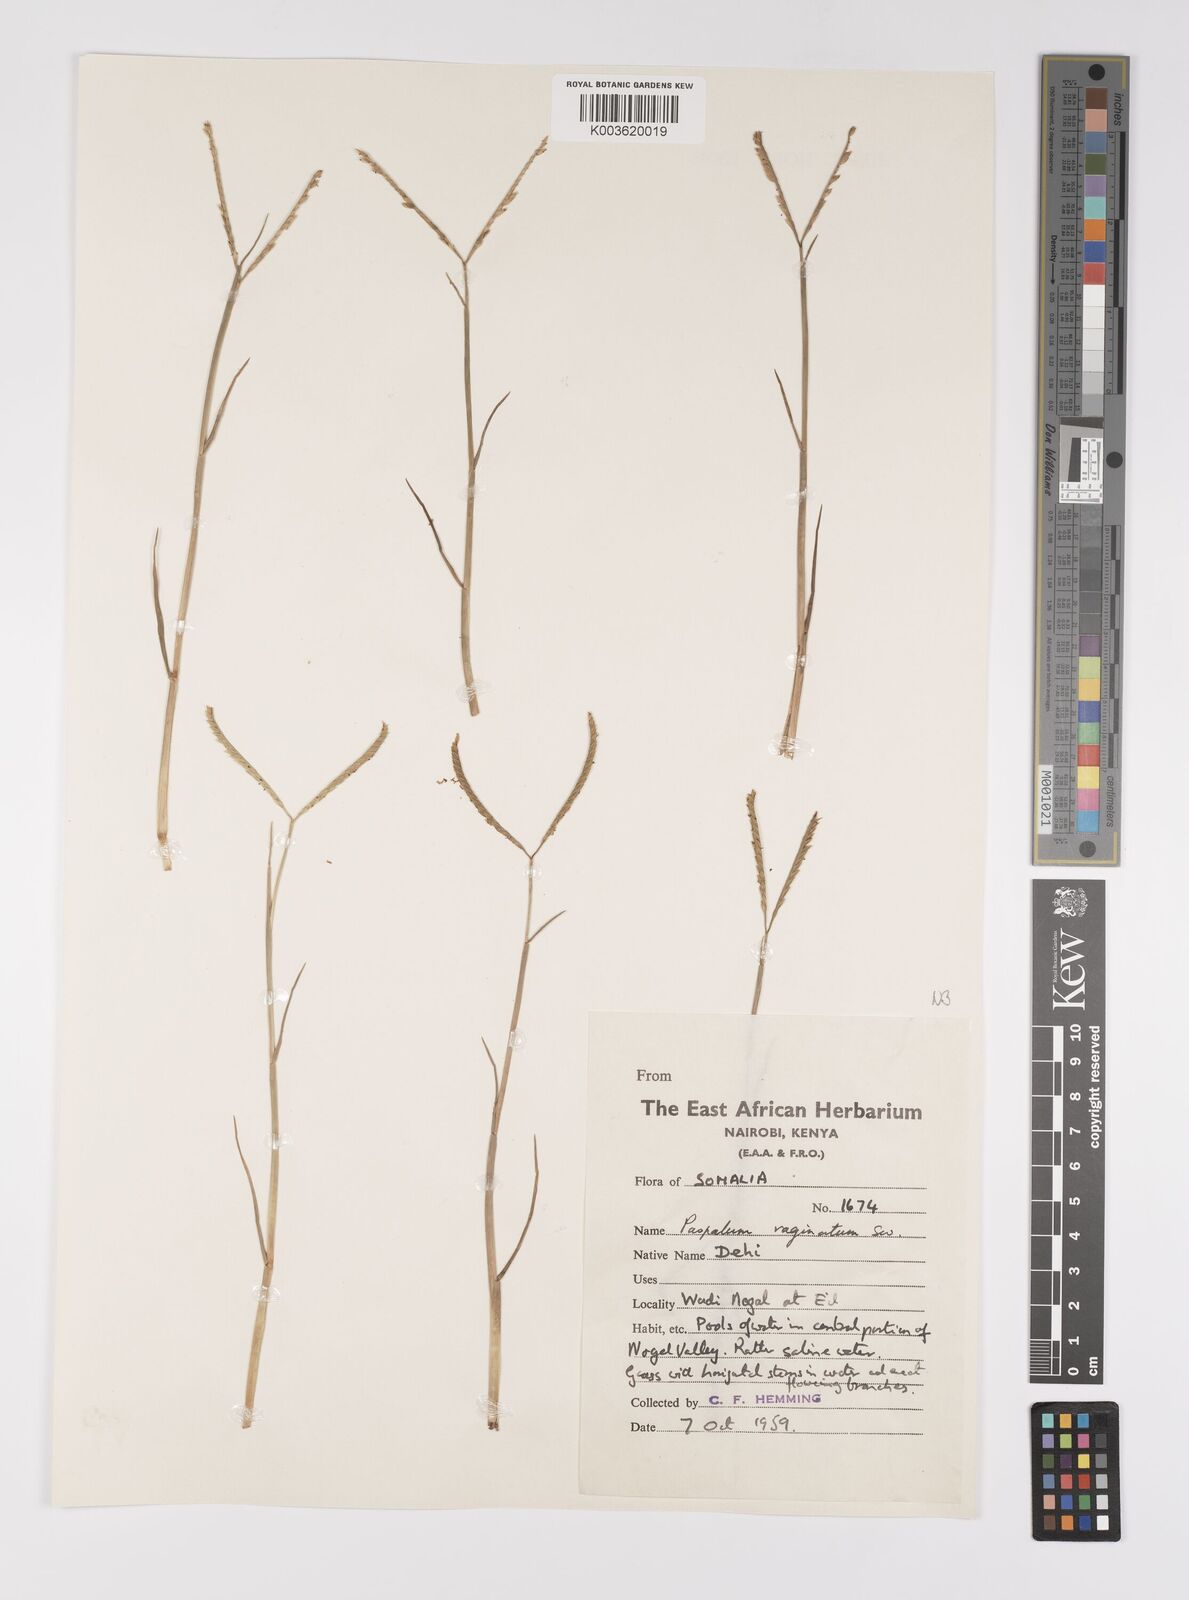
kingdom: Plantae
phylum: Tracheophyta
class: Liliopsida
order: Poales
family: Poaceae
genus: Paspalum
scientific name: Paspalum decumbens
